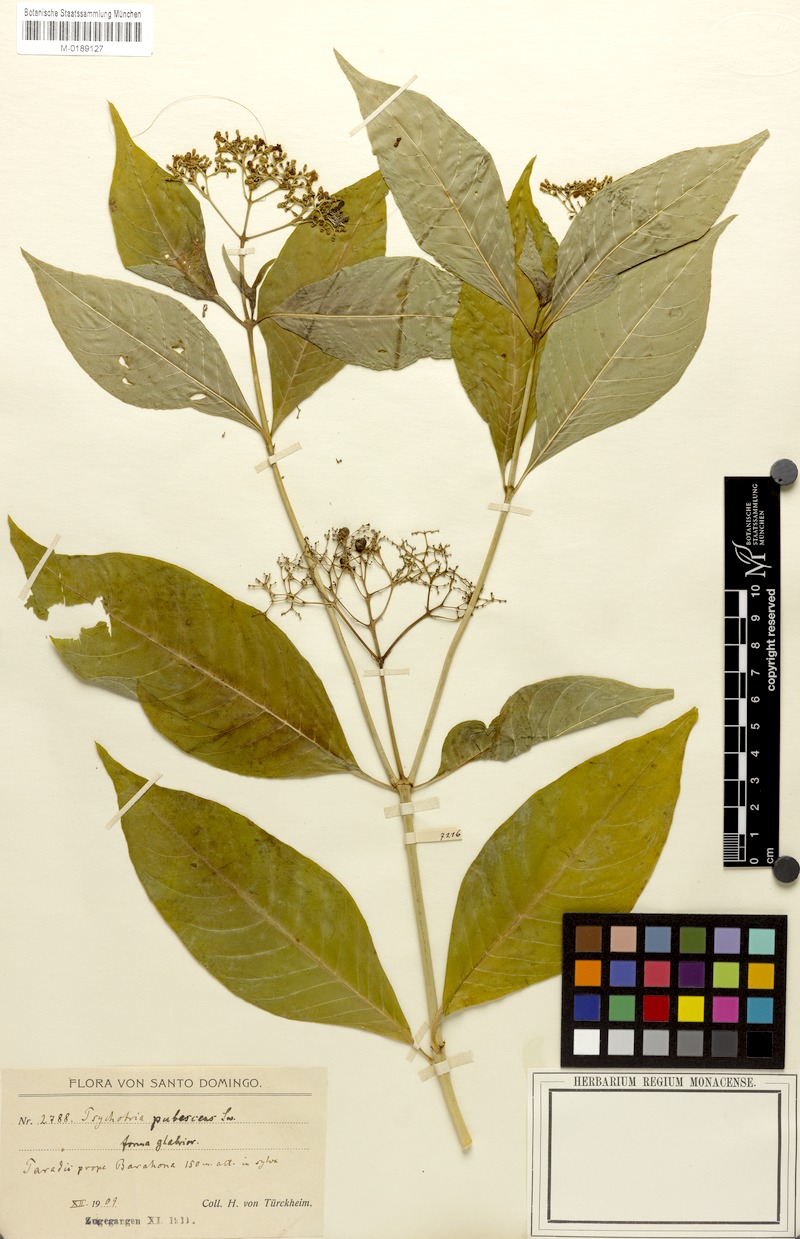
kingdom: Plantae
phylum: Tracheophyta
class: Magnoliopsida
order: Gentianales
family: Rubiaceae
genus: Palicourea
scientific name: Palicourea pubescens
